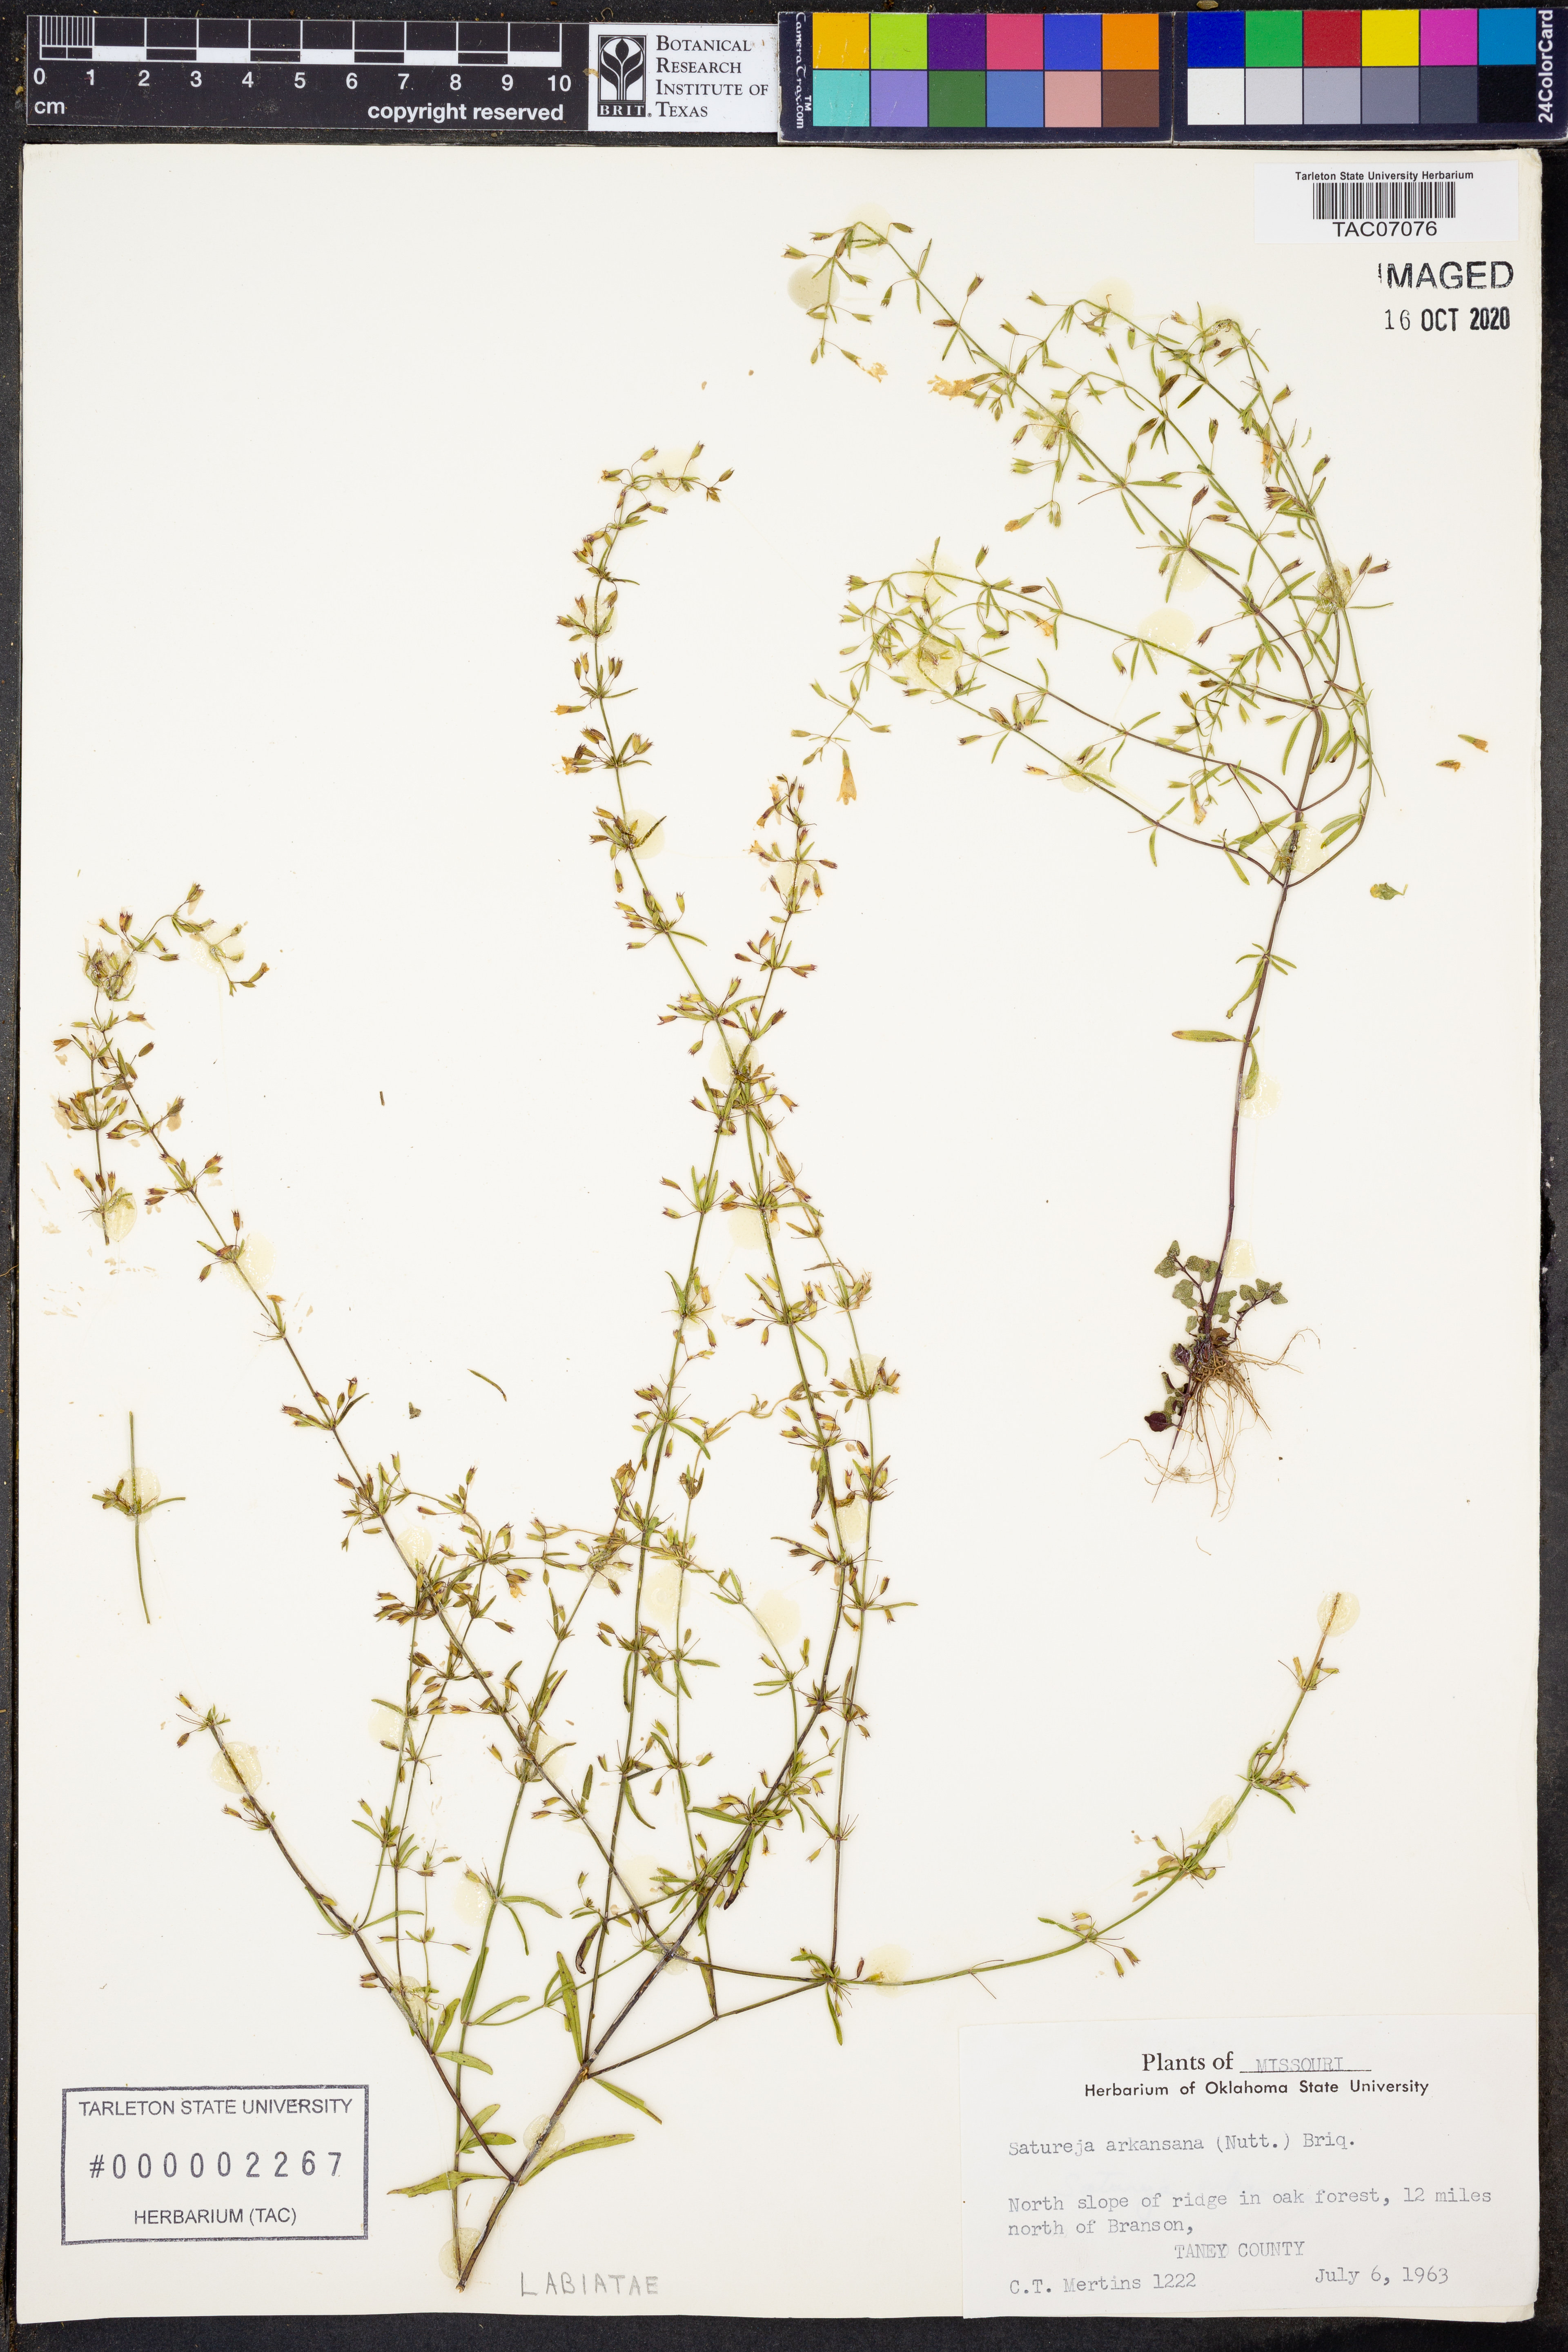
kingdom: Plantae
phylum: Tracheophyta
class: Magnoliopsida
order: Lamiales
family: Lamiaceae
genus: Clinopodium
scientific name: Clinopodium arkansanum
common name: Limestone calamint
